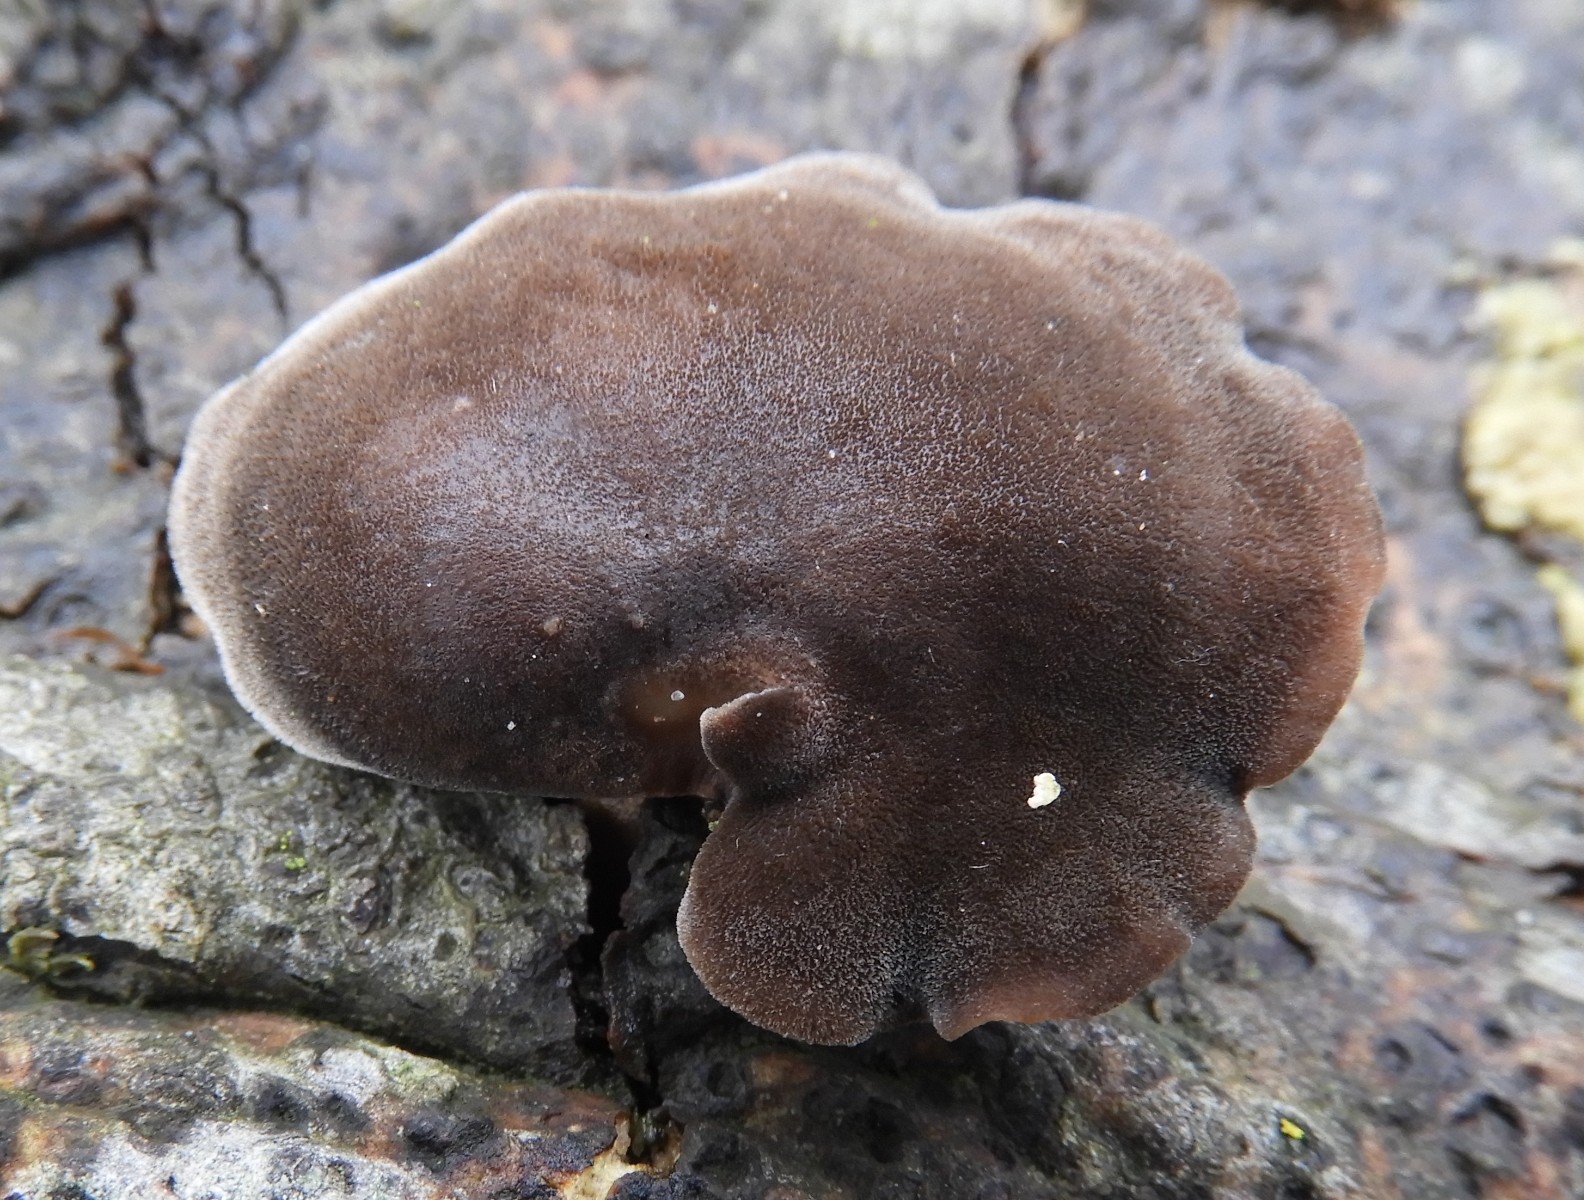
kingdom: Fungi
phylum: Basidiomycota
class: Agaricomycetes
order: Polyporales
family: Polyporaceae
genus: Lentinus
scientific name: Lentinus brumalis
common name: vinter-stilkporesvamp
